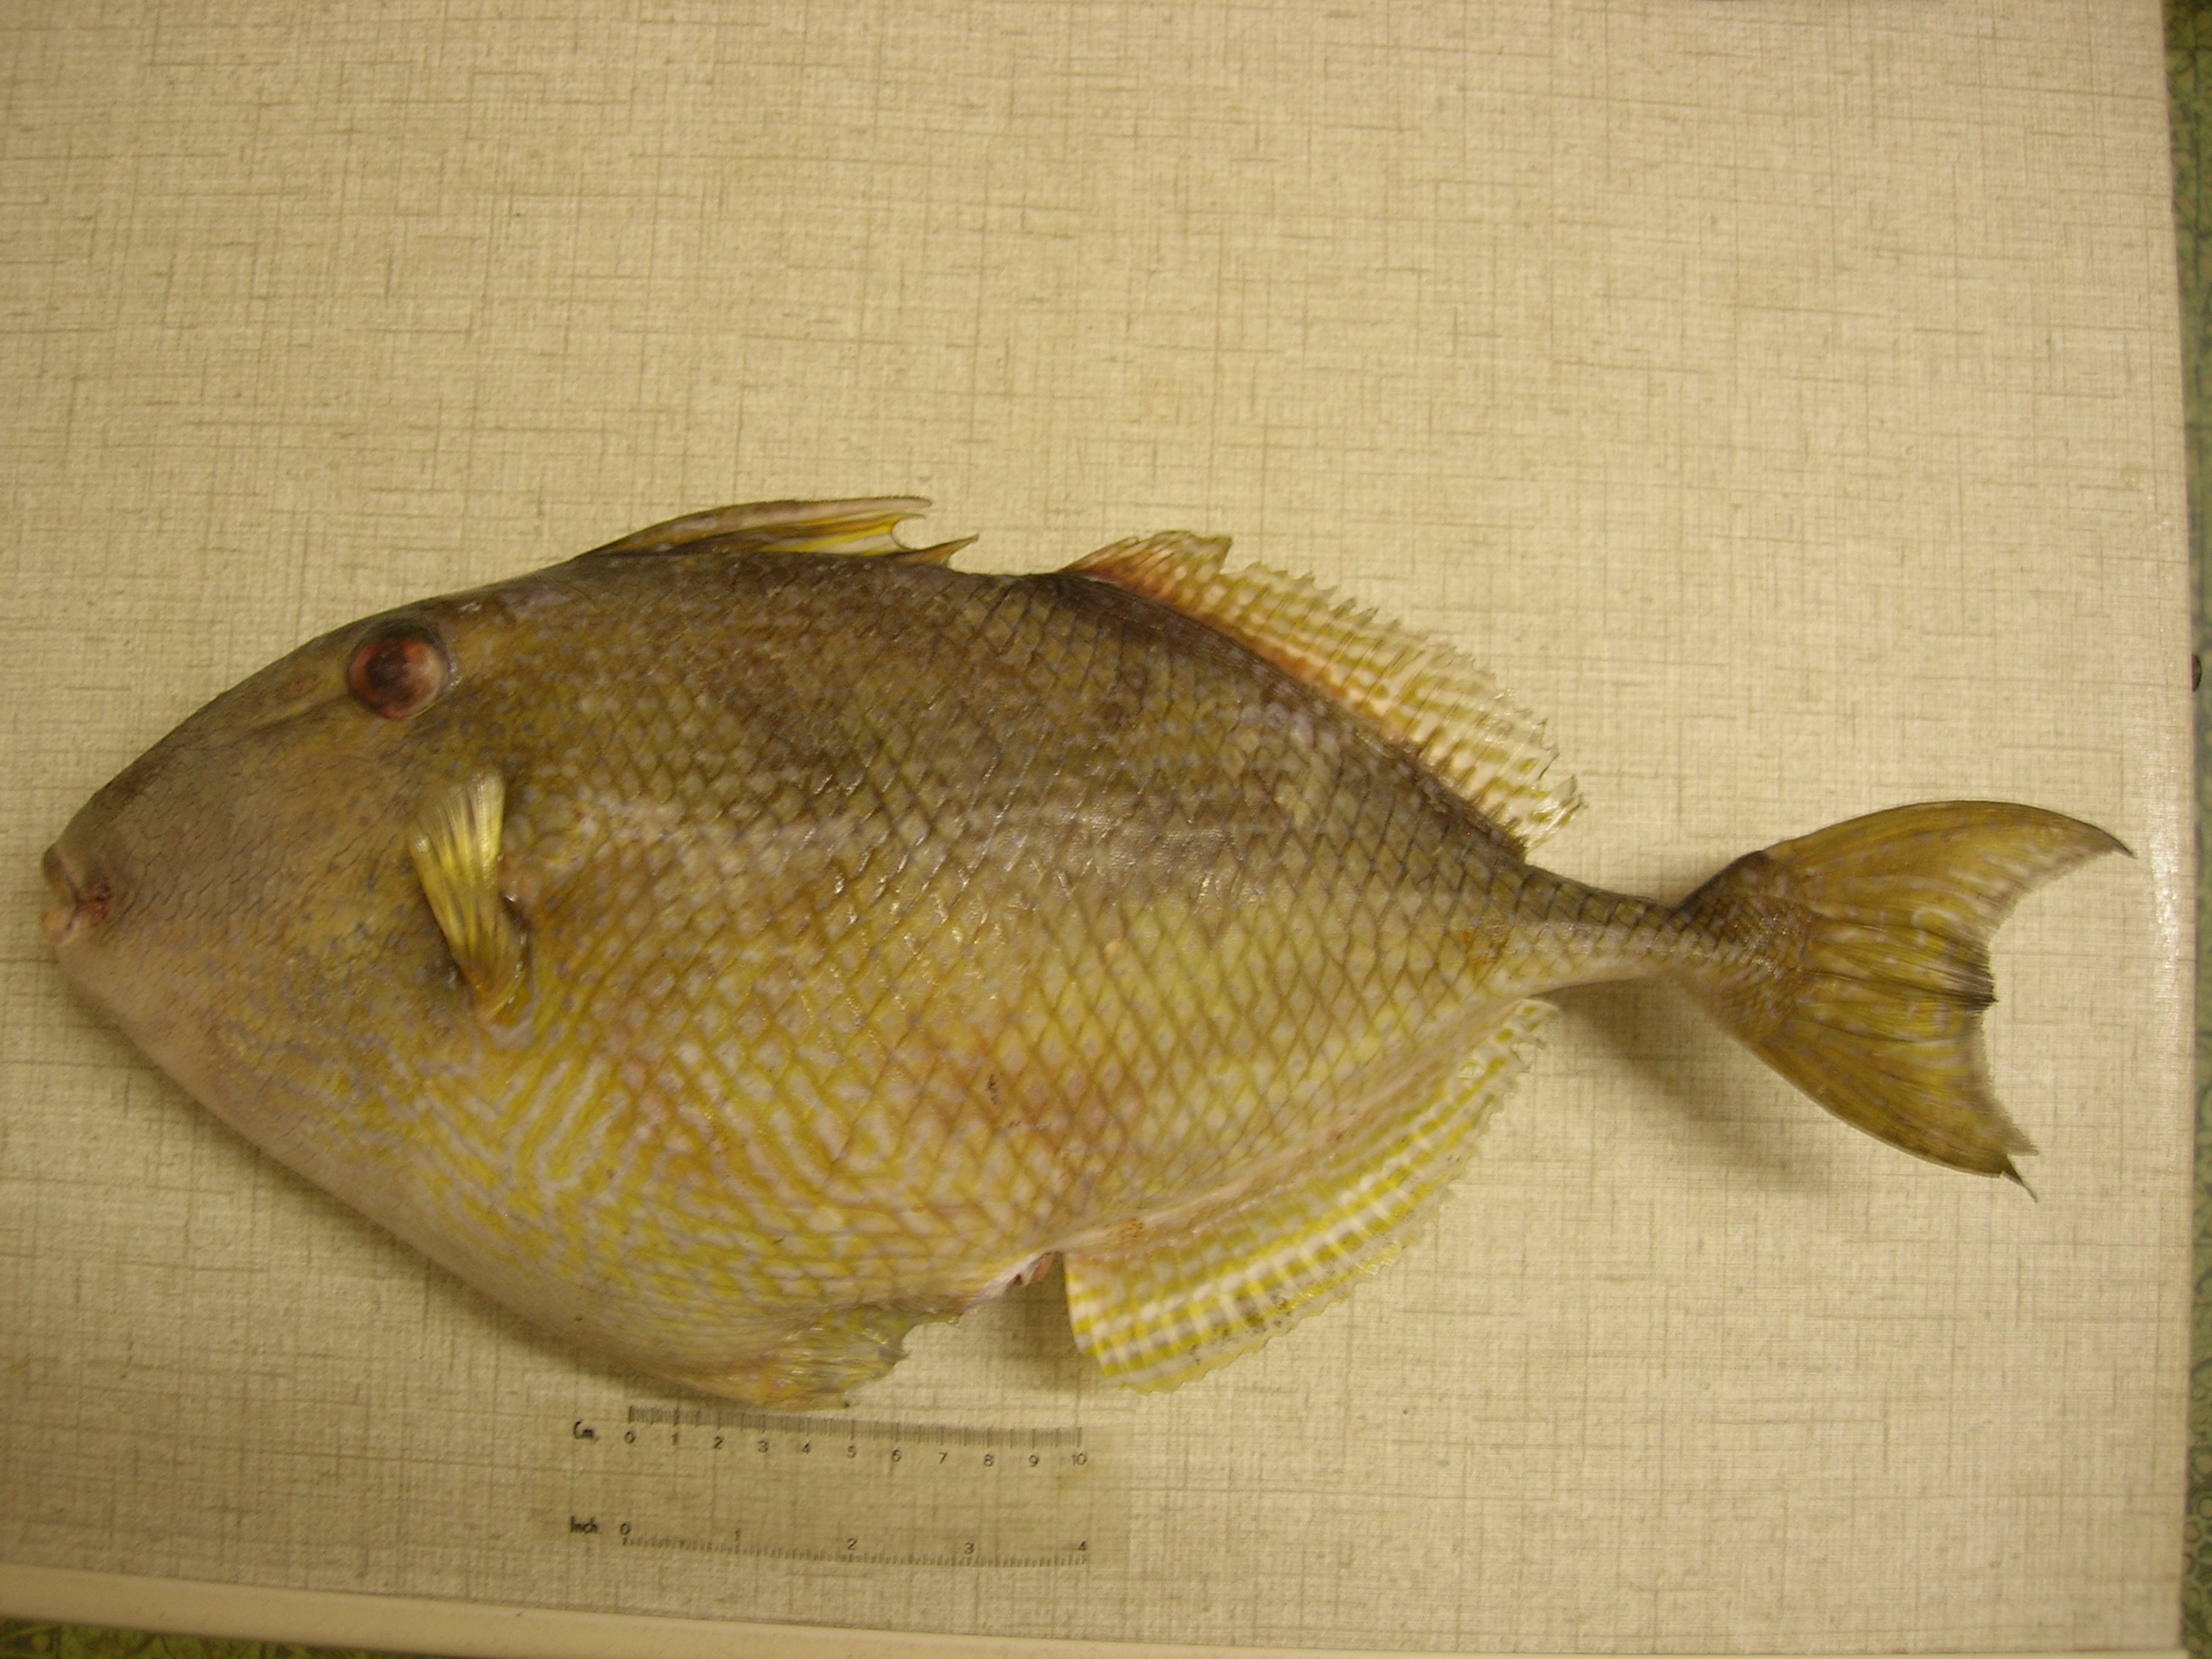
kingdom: Animalia
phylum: Chordata
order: Tetraodontiformes
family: Balistidae
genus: Abalistes
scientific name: Abalistes stellatus
